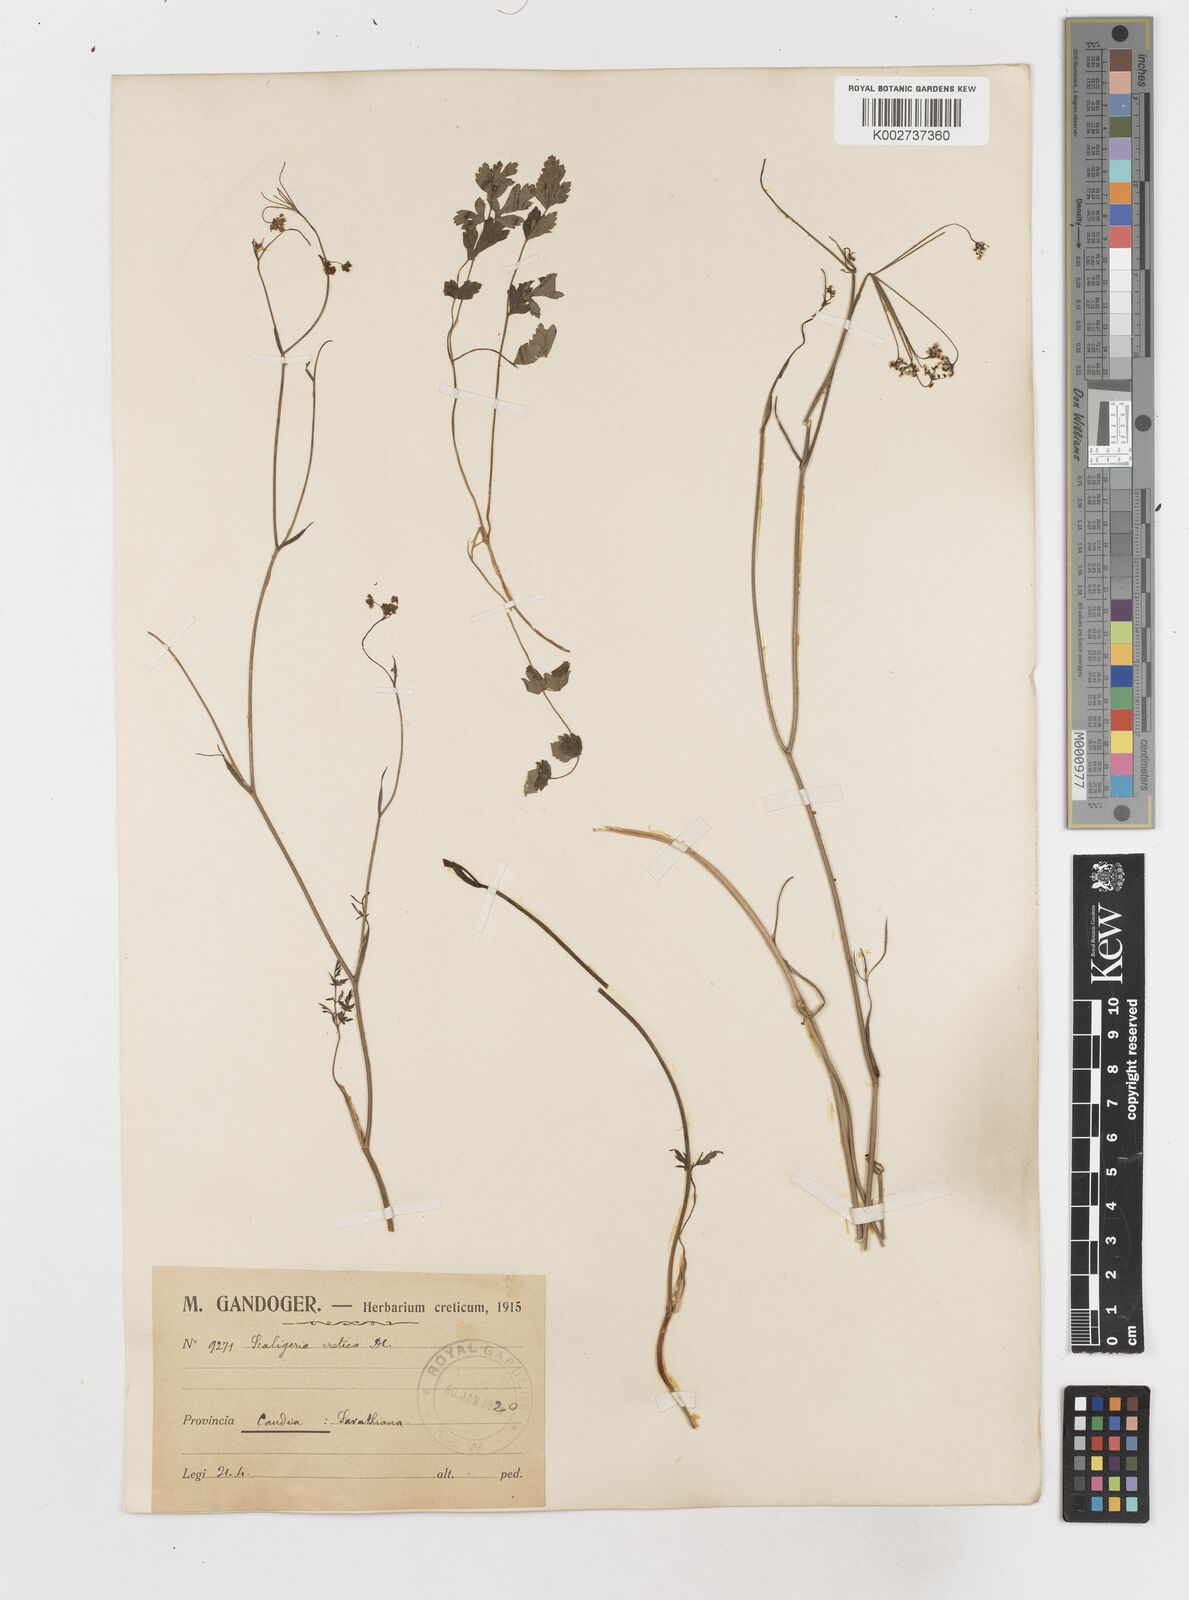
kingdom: Plantae
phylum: Tracheophyta
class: Magnoliopsida
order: Apiales
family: Apiaceae
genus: Scaligeria
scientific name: Scaligeria napiformis
